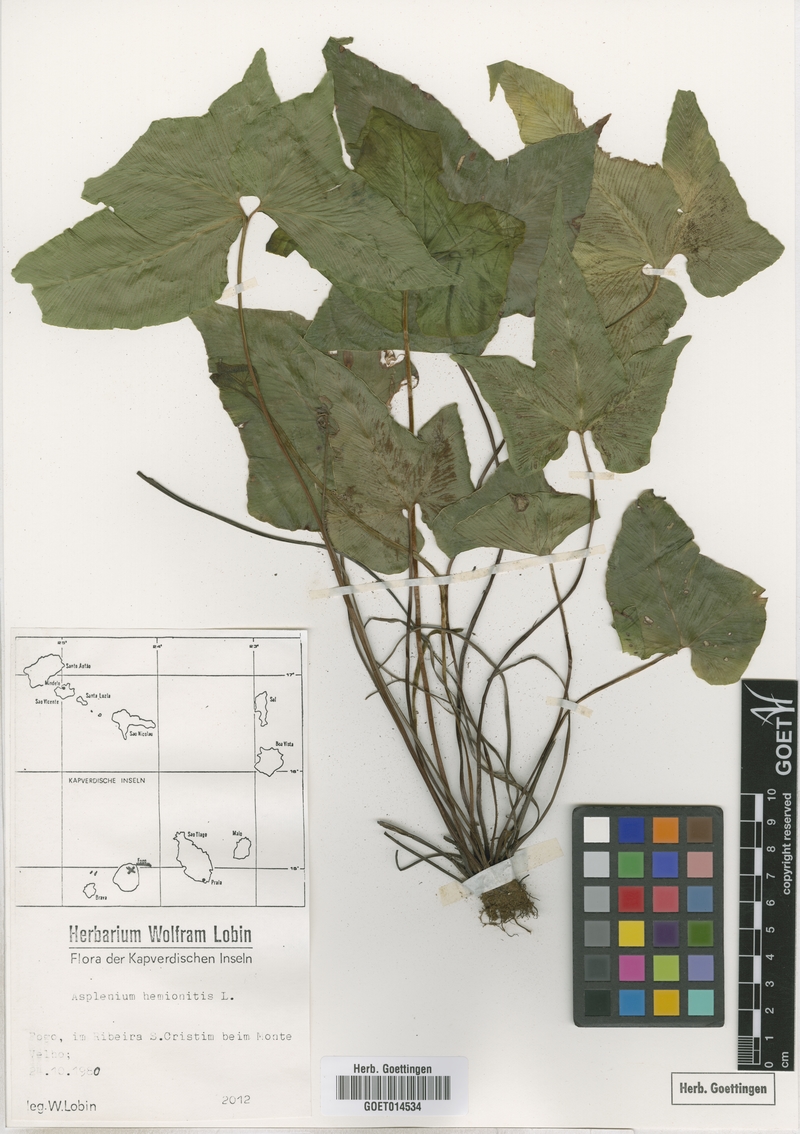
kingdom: Plantae
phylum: Tracheophyta
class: Polypodiopsida
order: Polypodiales
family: Aspleniaceae
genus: Asplenium
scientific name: Asplenium hemionitis
